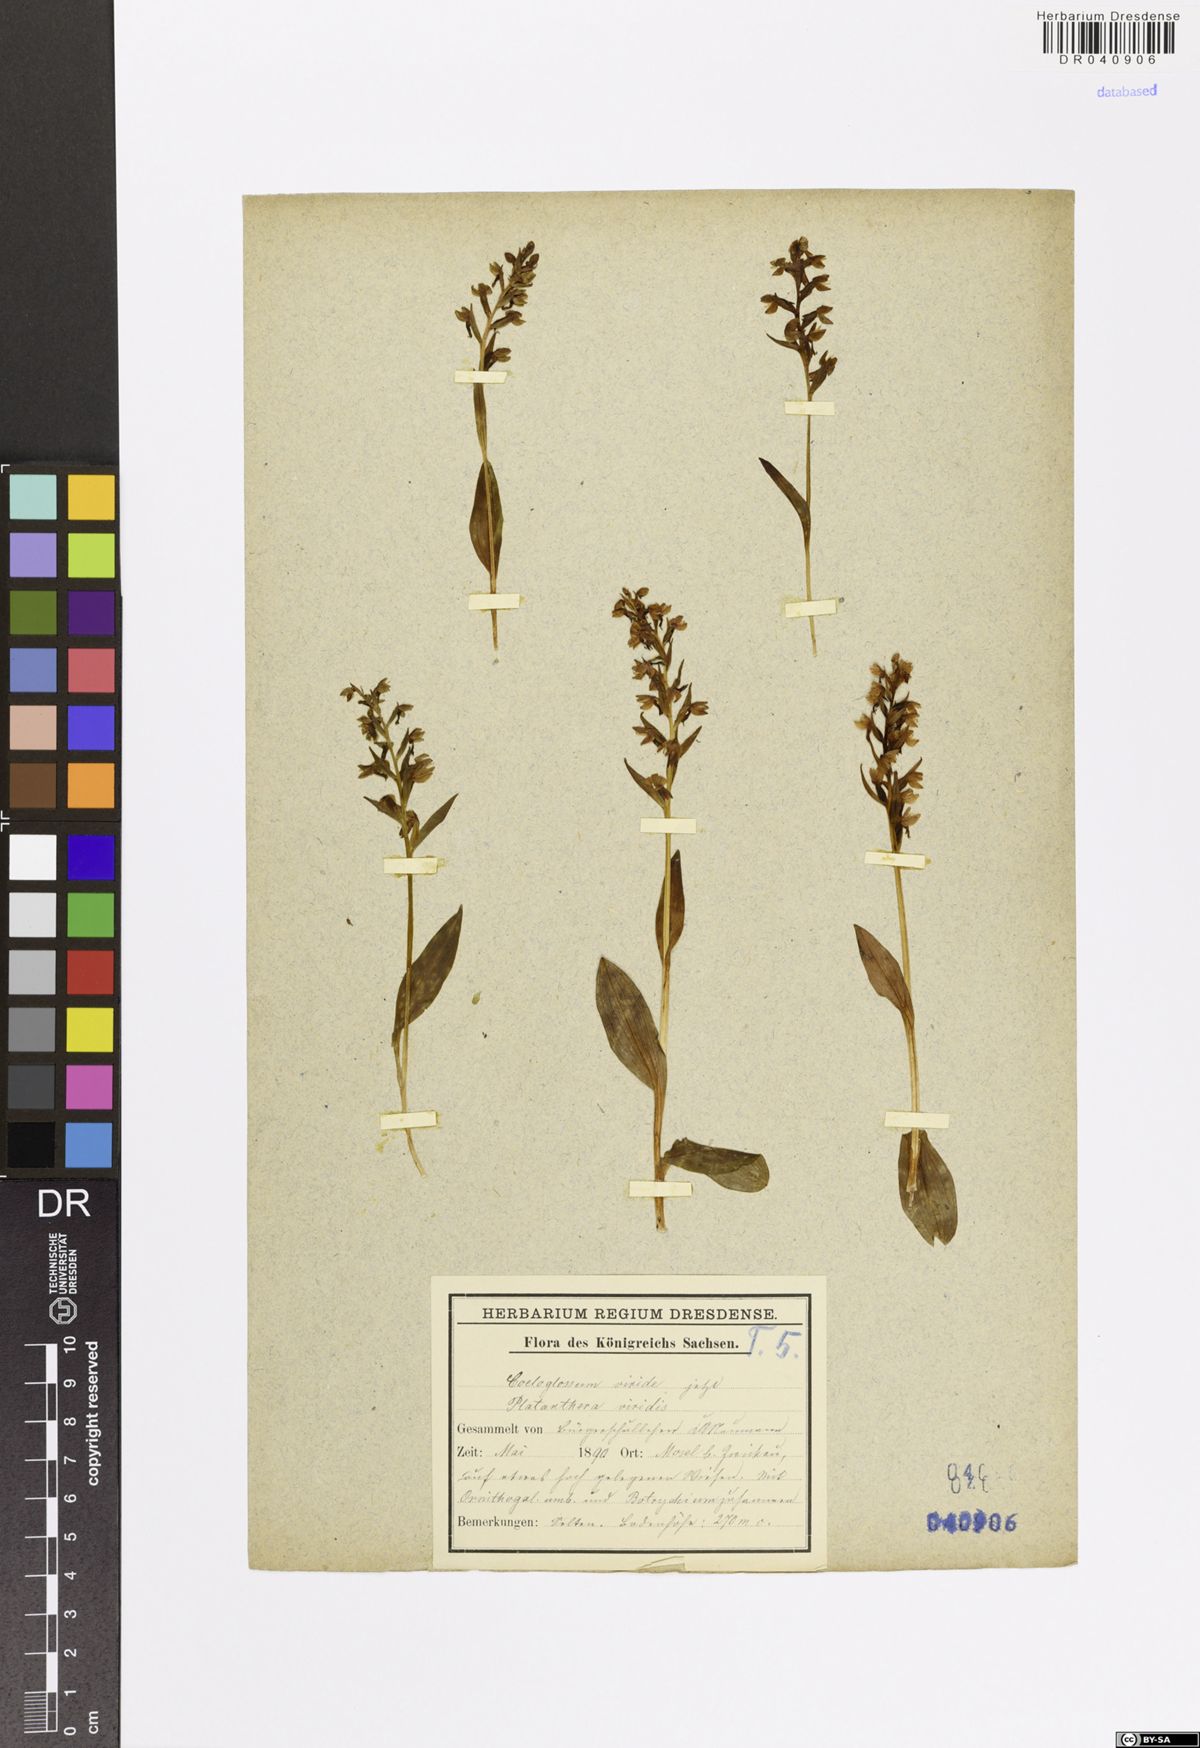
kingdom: Plantae
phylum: Tracheophyta
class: Liliopsida
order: Asparagales
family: Orchidaceae
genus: Dactylorhiza
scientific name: Dactylorhiza viridis
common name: Longbract frog orchid
